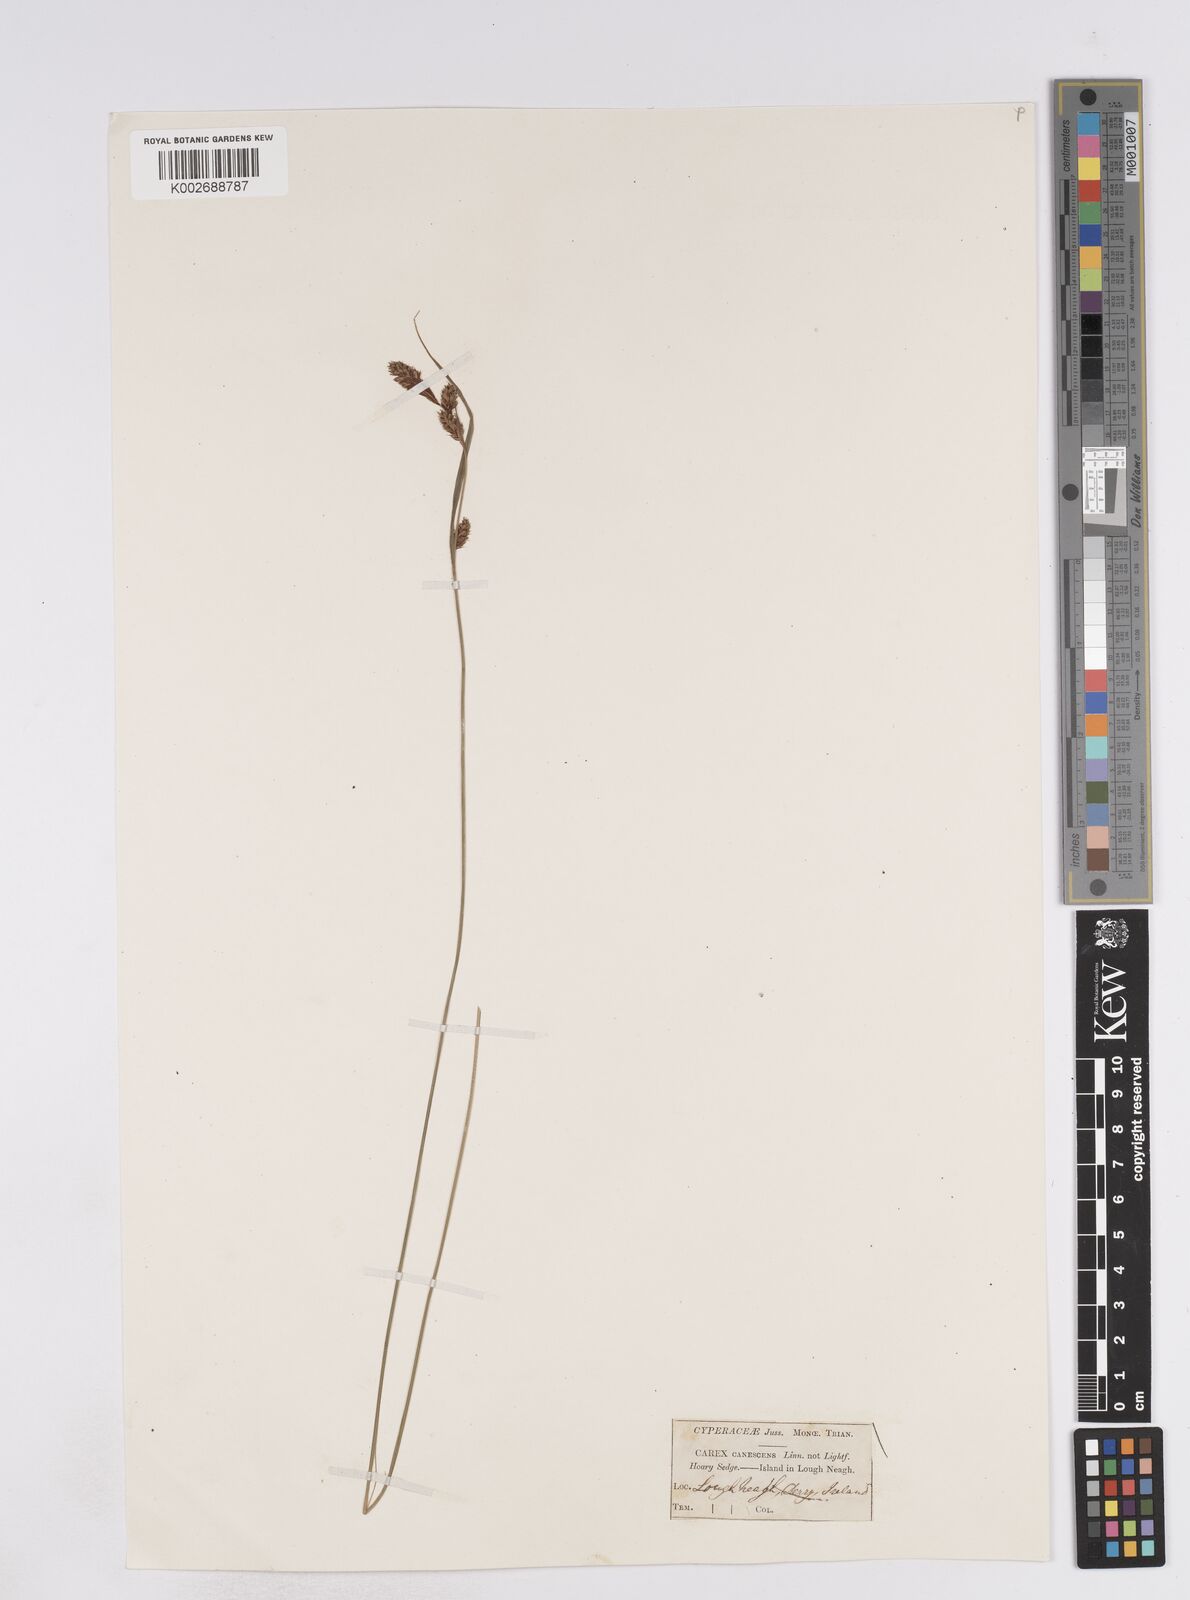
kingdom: Plantae
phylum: Tracheophyta
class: Liliopsida
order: Poales
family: Cyperaceae
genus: Carex
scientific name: Carex buxbaumii
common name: Club sedge
